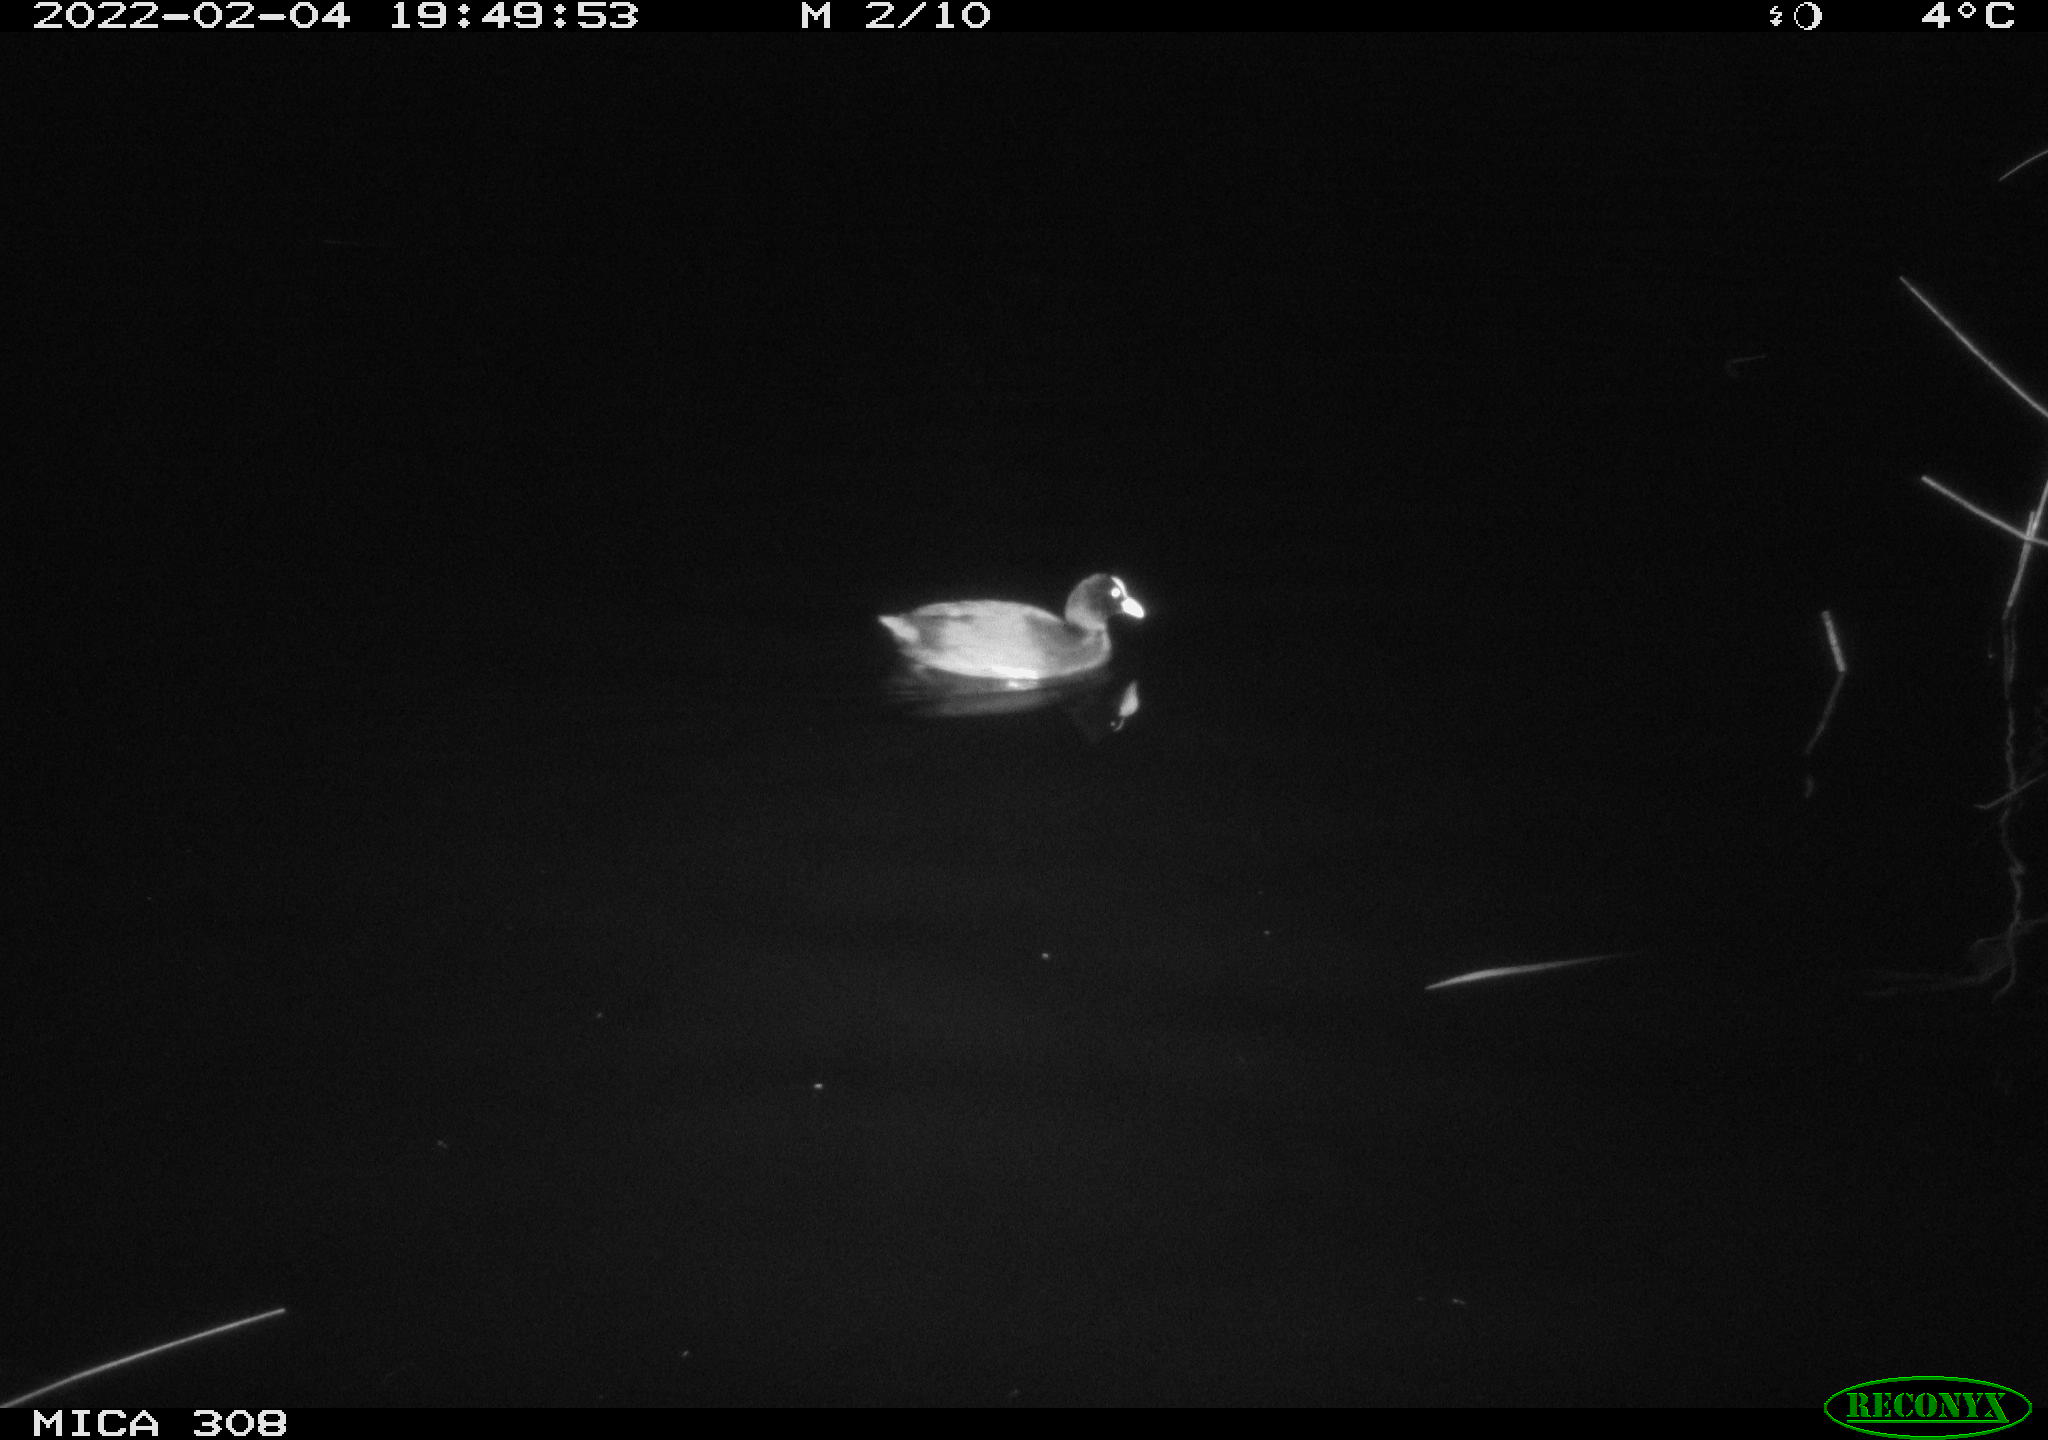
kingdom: Animalia
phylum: Chordata
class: Aves
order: Gruiformes
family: Rallidae
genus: Fulica
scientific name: Fulica atra
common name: Eurasian coot
